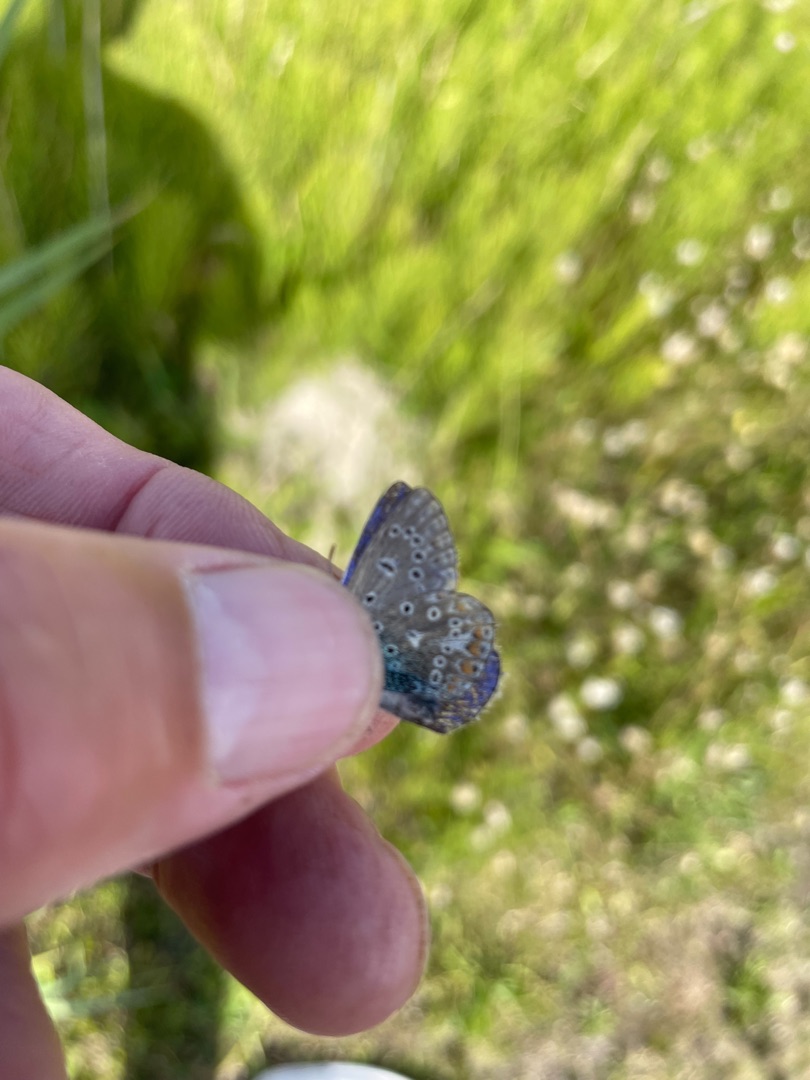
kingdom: Animalia
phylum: Arthropoda
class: Insecta
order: Lepidoptera
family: Lycaenidae
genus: Polyommatus
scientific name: Polyommatus icarus
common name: Almindelig blåfugl
